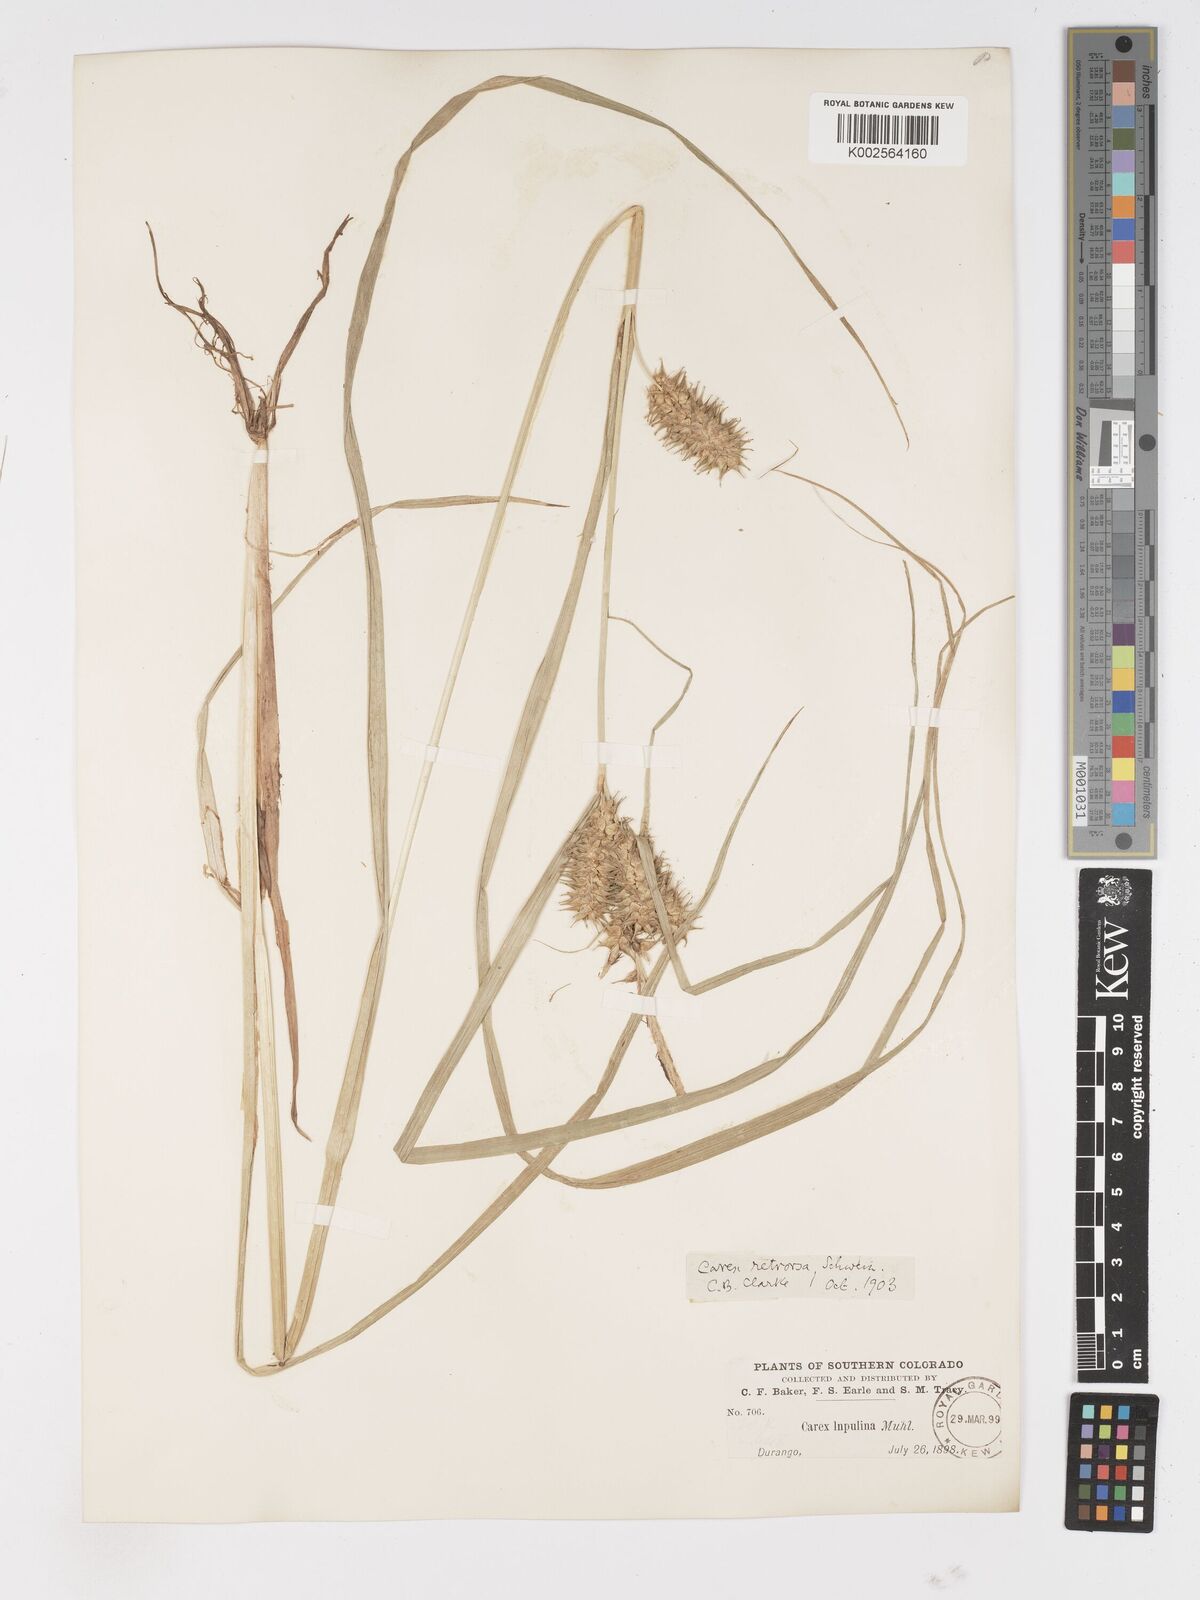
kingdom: Plantae
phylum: Tracheophyta
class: Liliopsida
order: Poales
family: Cyperaceae
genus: Carex
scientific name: Carex retrorsa
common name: Knot-sheath sedge
